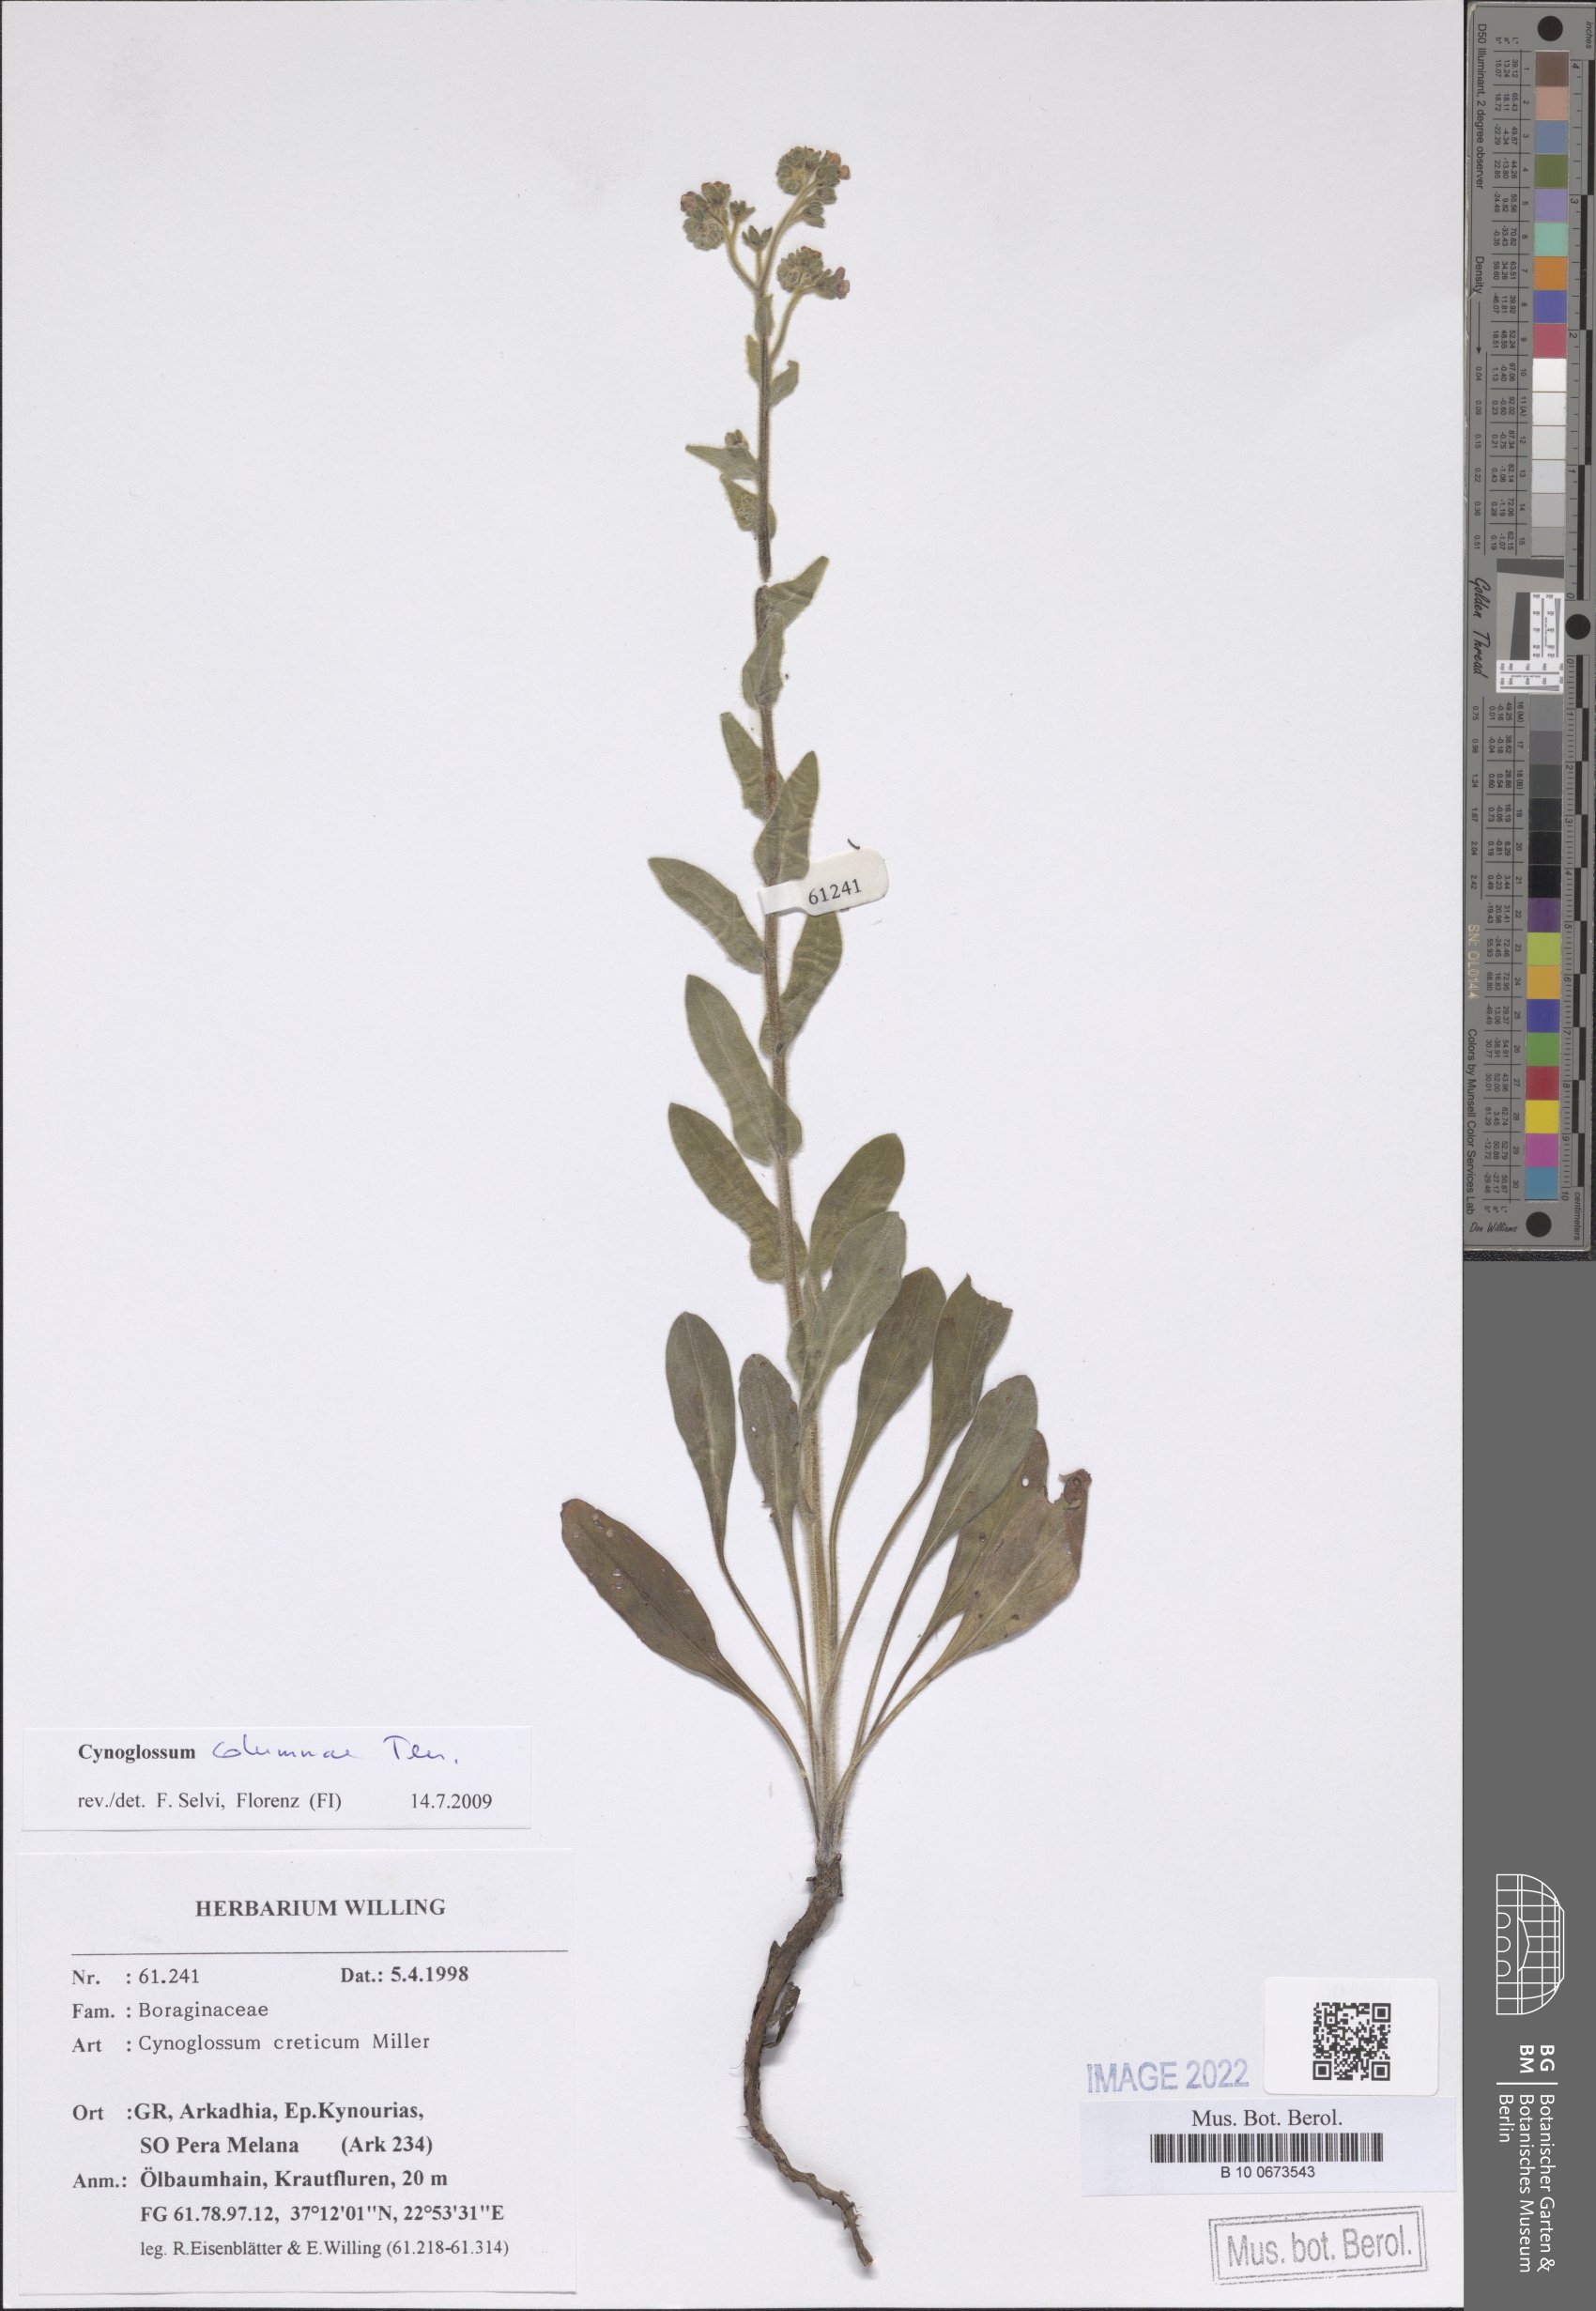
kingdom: Plantae
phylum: Tracheophyta
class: Magnoliopsida
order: Boraginales
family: Boraginaceae
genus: Rindera
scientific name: Rindera columnae
